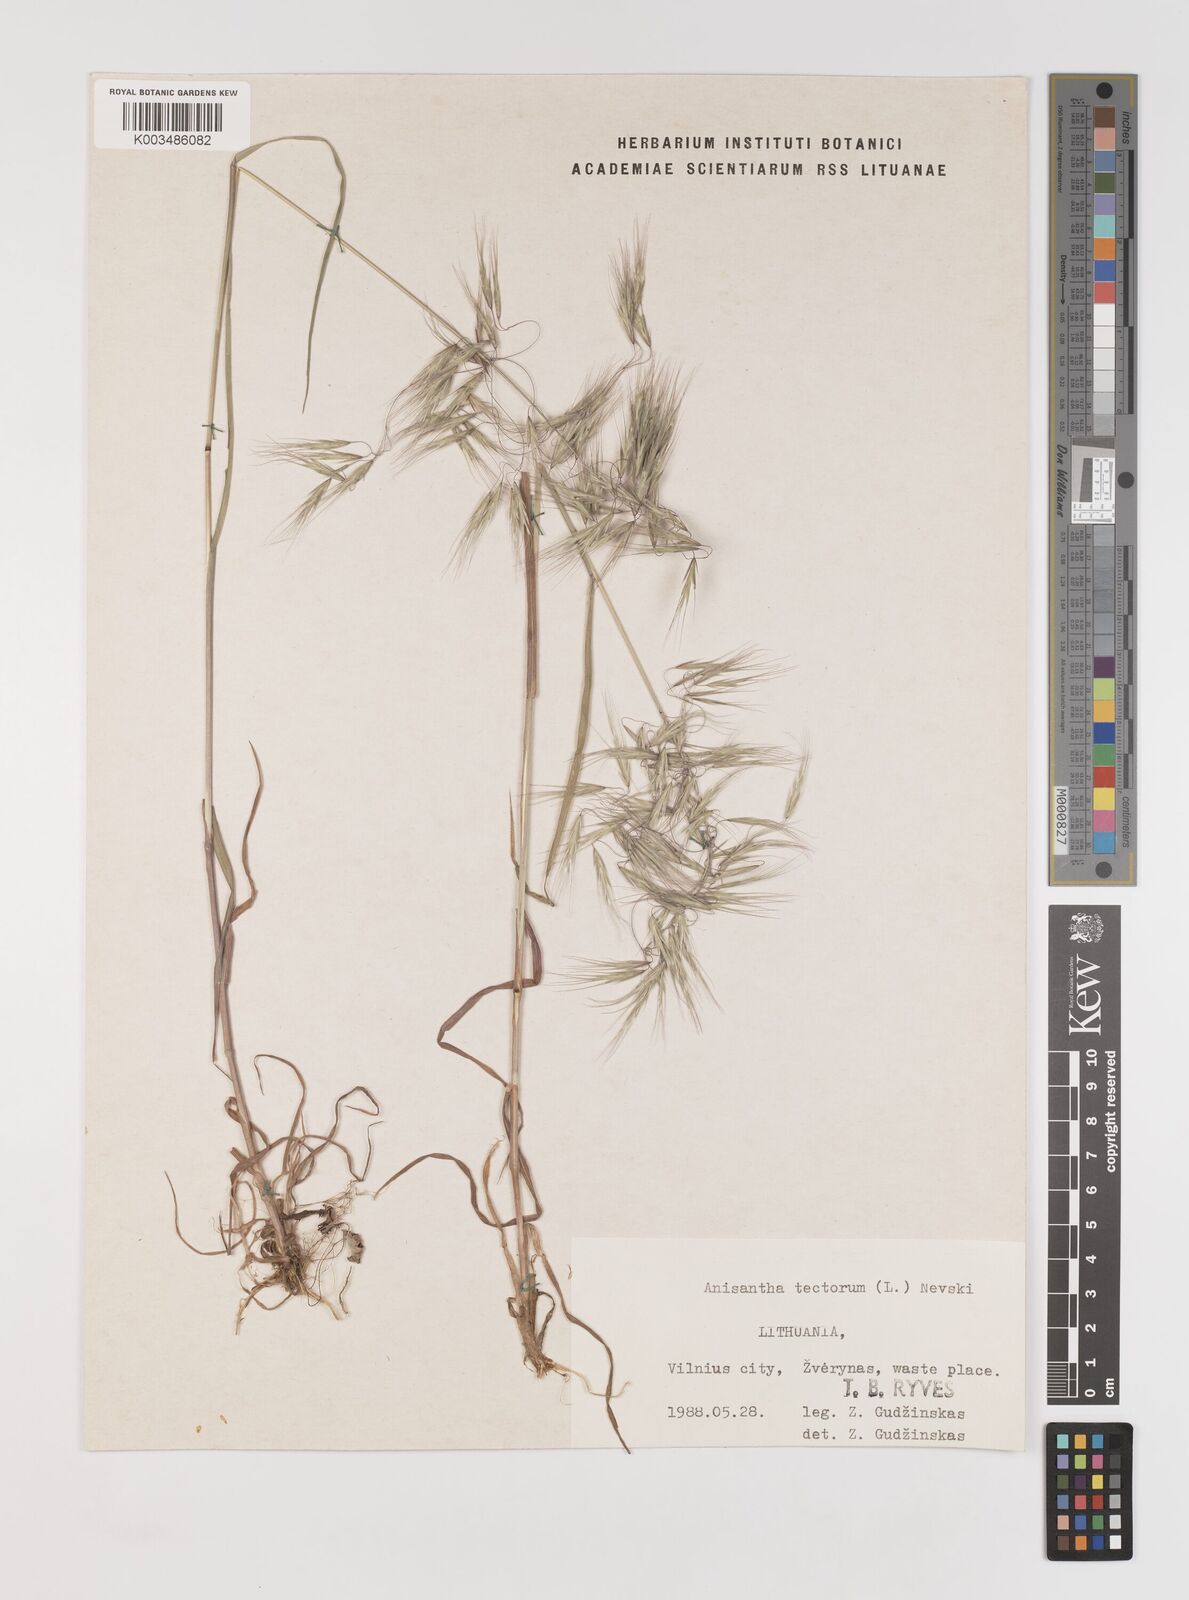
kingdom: Plantae
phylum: Tracheophyta
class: Liliopsida
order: Poales
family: Poaceae
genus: Bromus
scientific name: Bromus tectorum
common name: Cheatgrass
